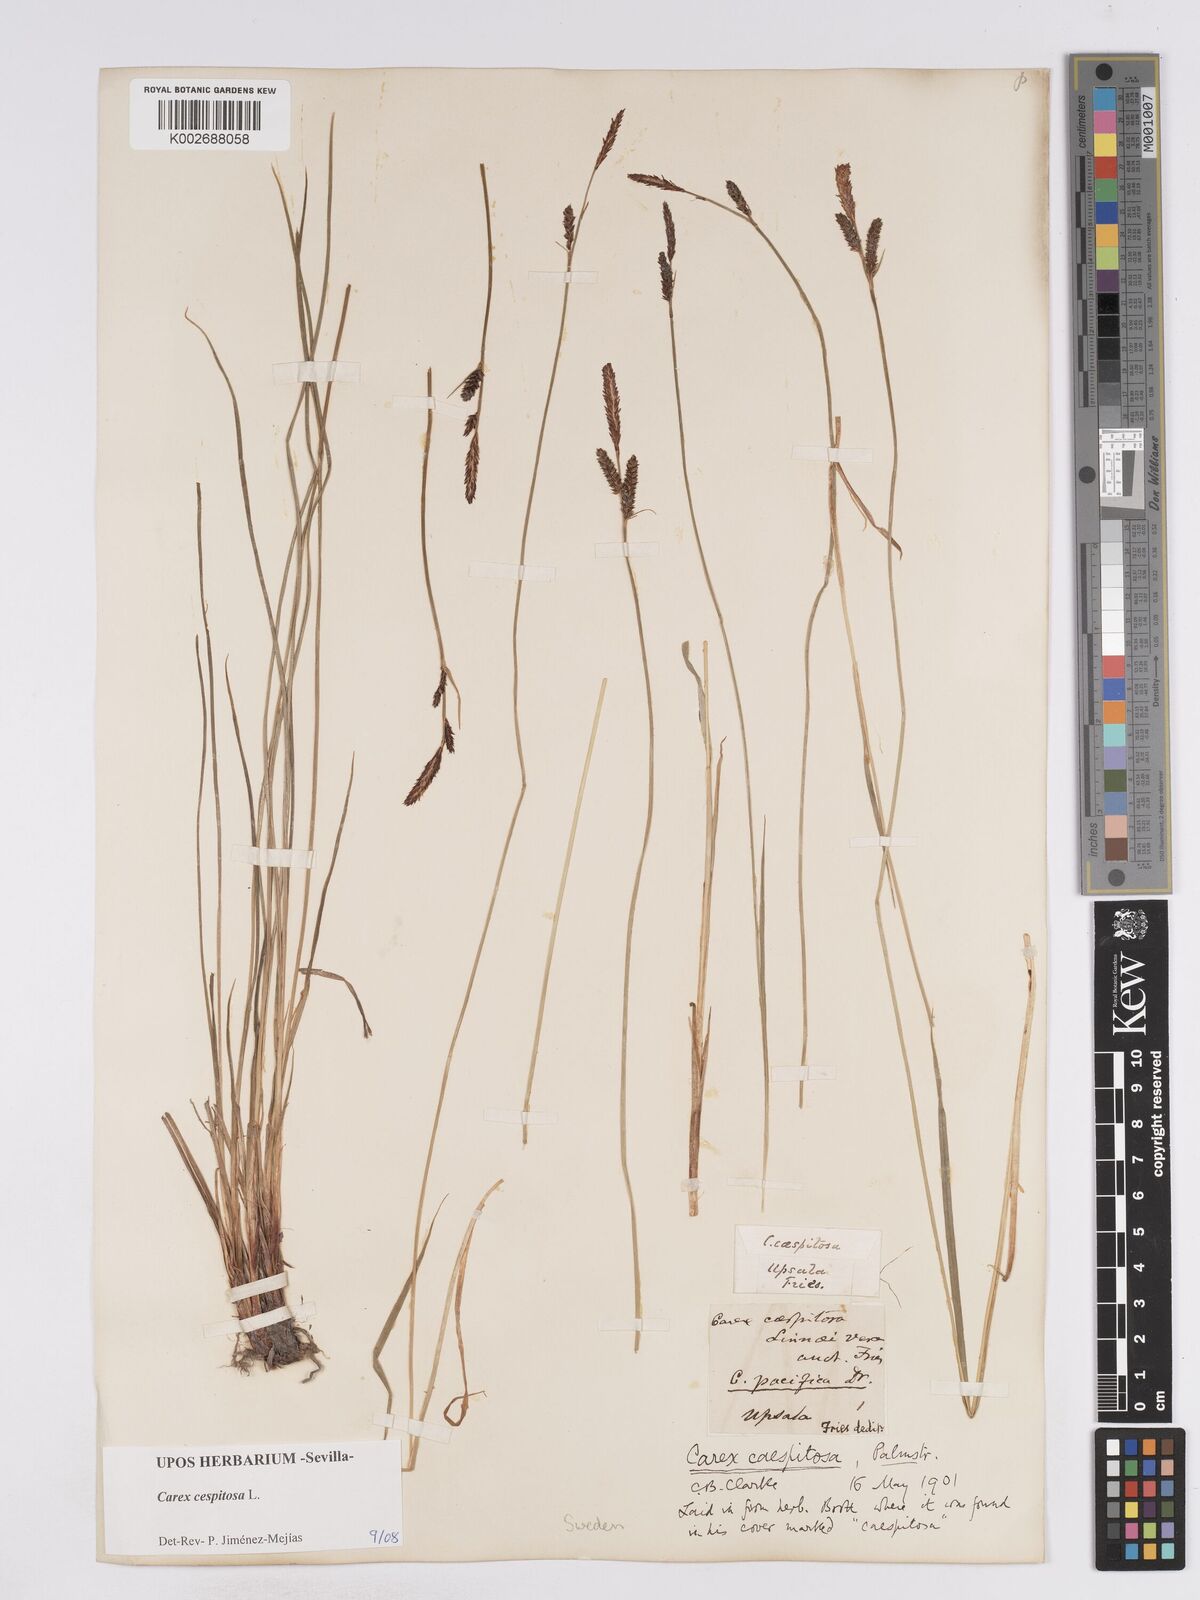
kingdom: Plantae
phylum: Tracheophyta
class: Liliopsida
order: Poales
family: Cyperaceae
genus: Carex
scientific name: Carex
